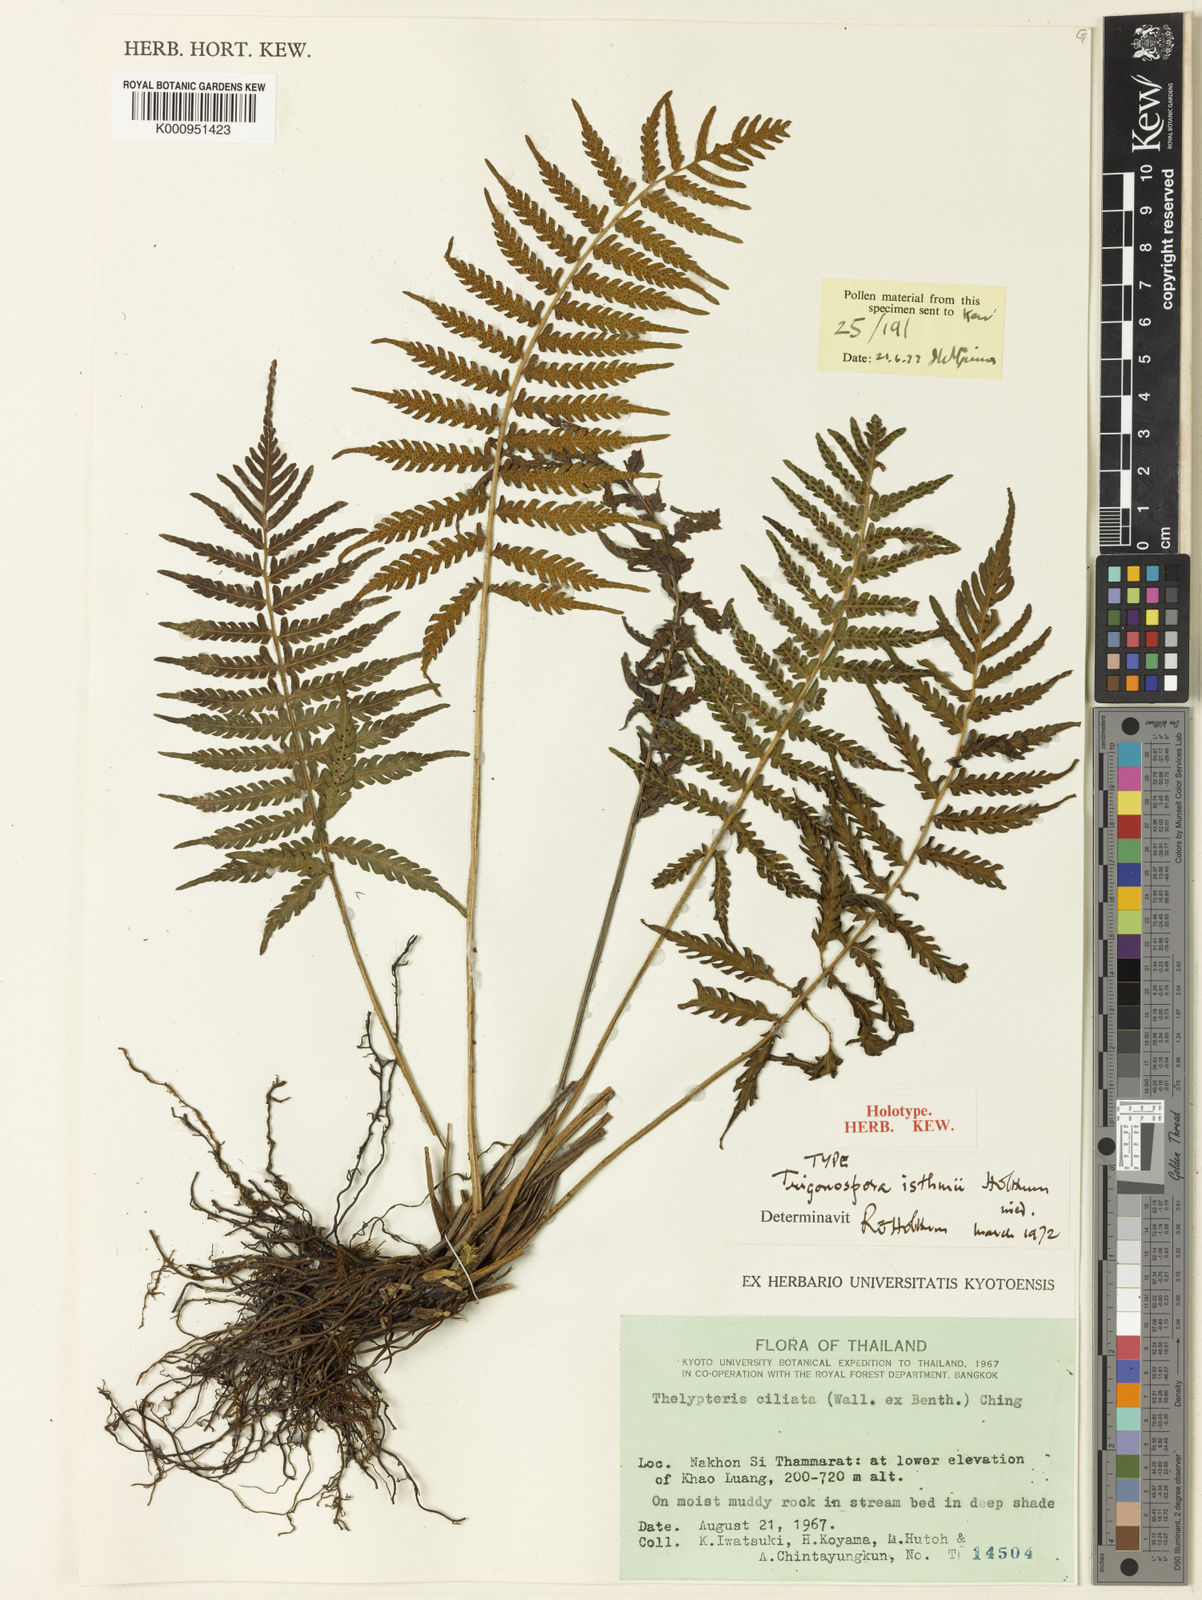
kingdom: Plantae
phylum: Tracheophyta
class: Polypodiopsida
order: Polypodiales
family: Thelypteridaceae
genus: Trigonospora
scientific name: Trigonospora
